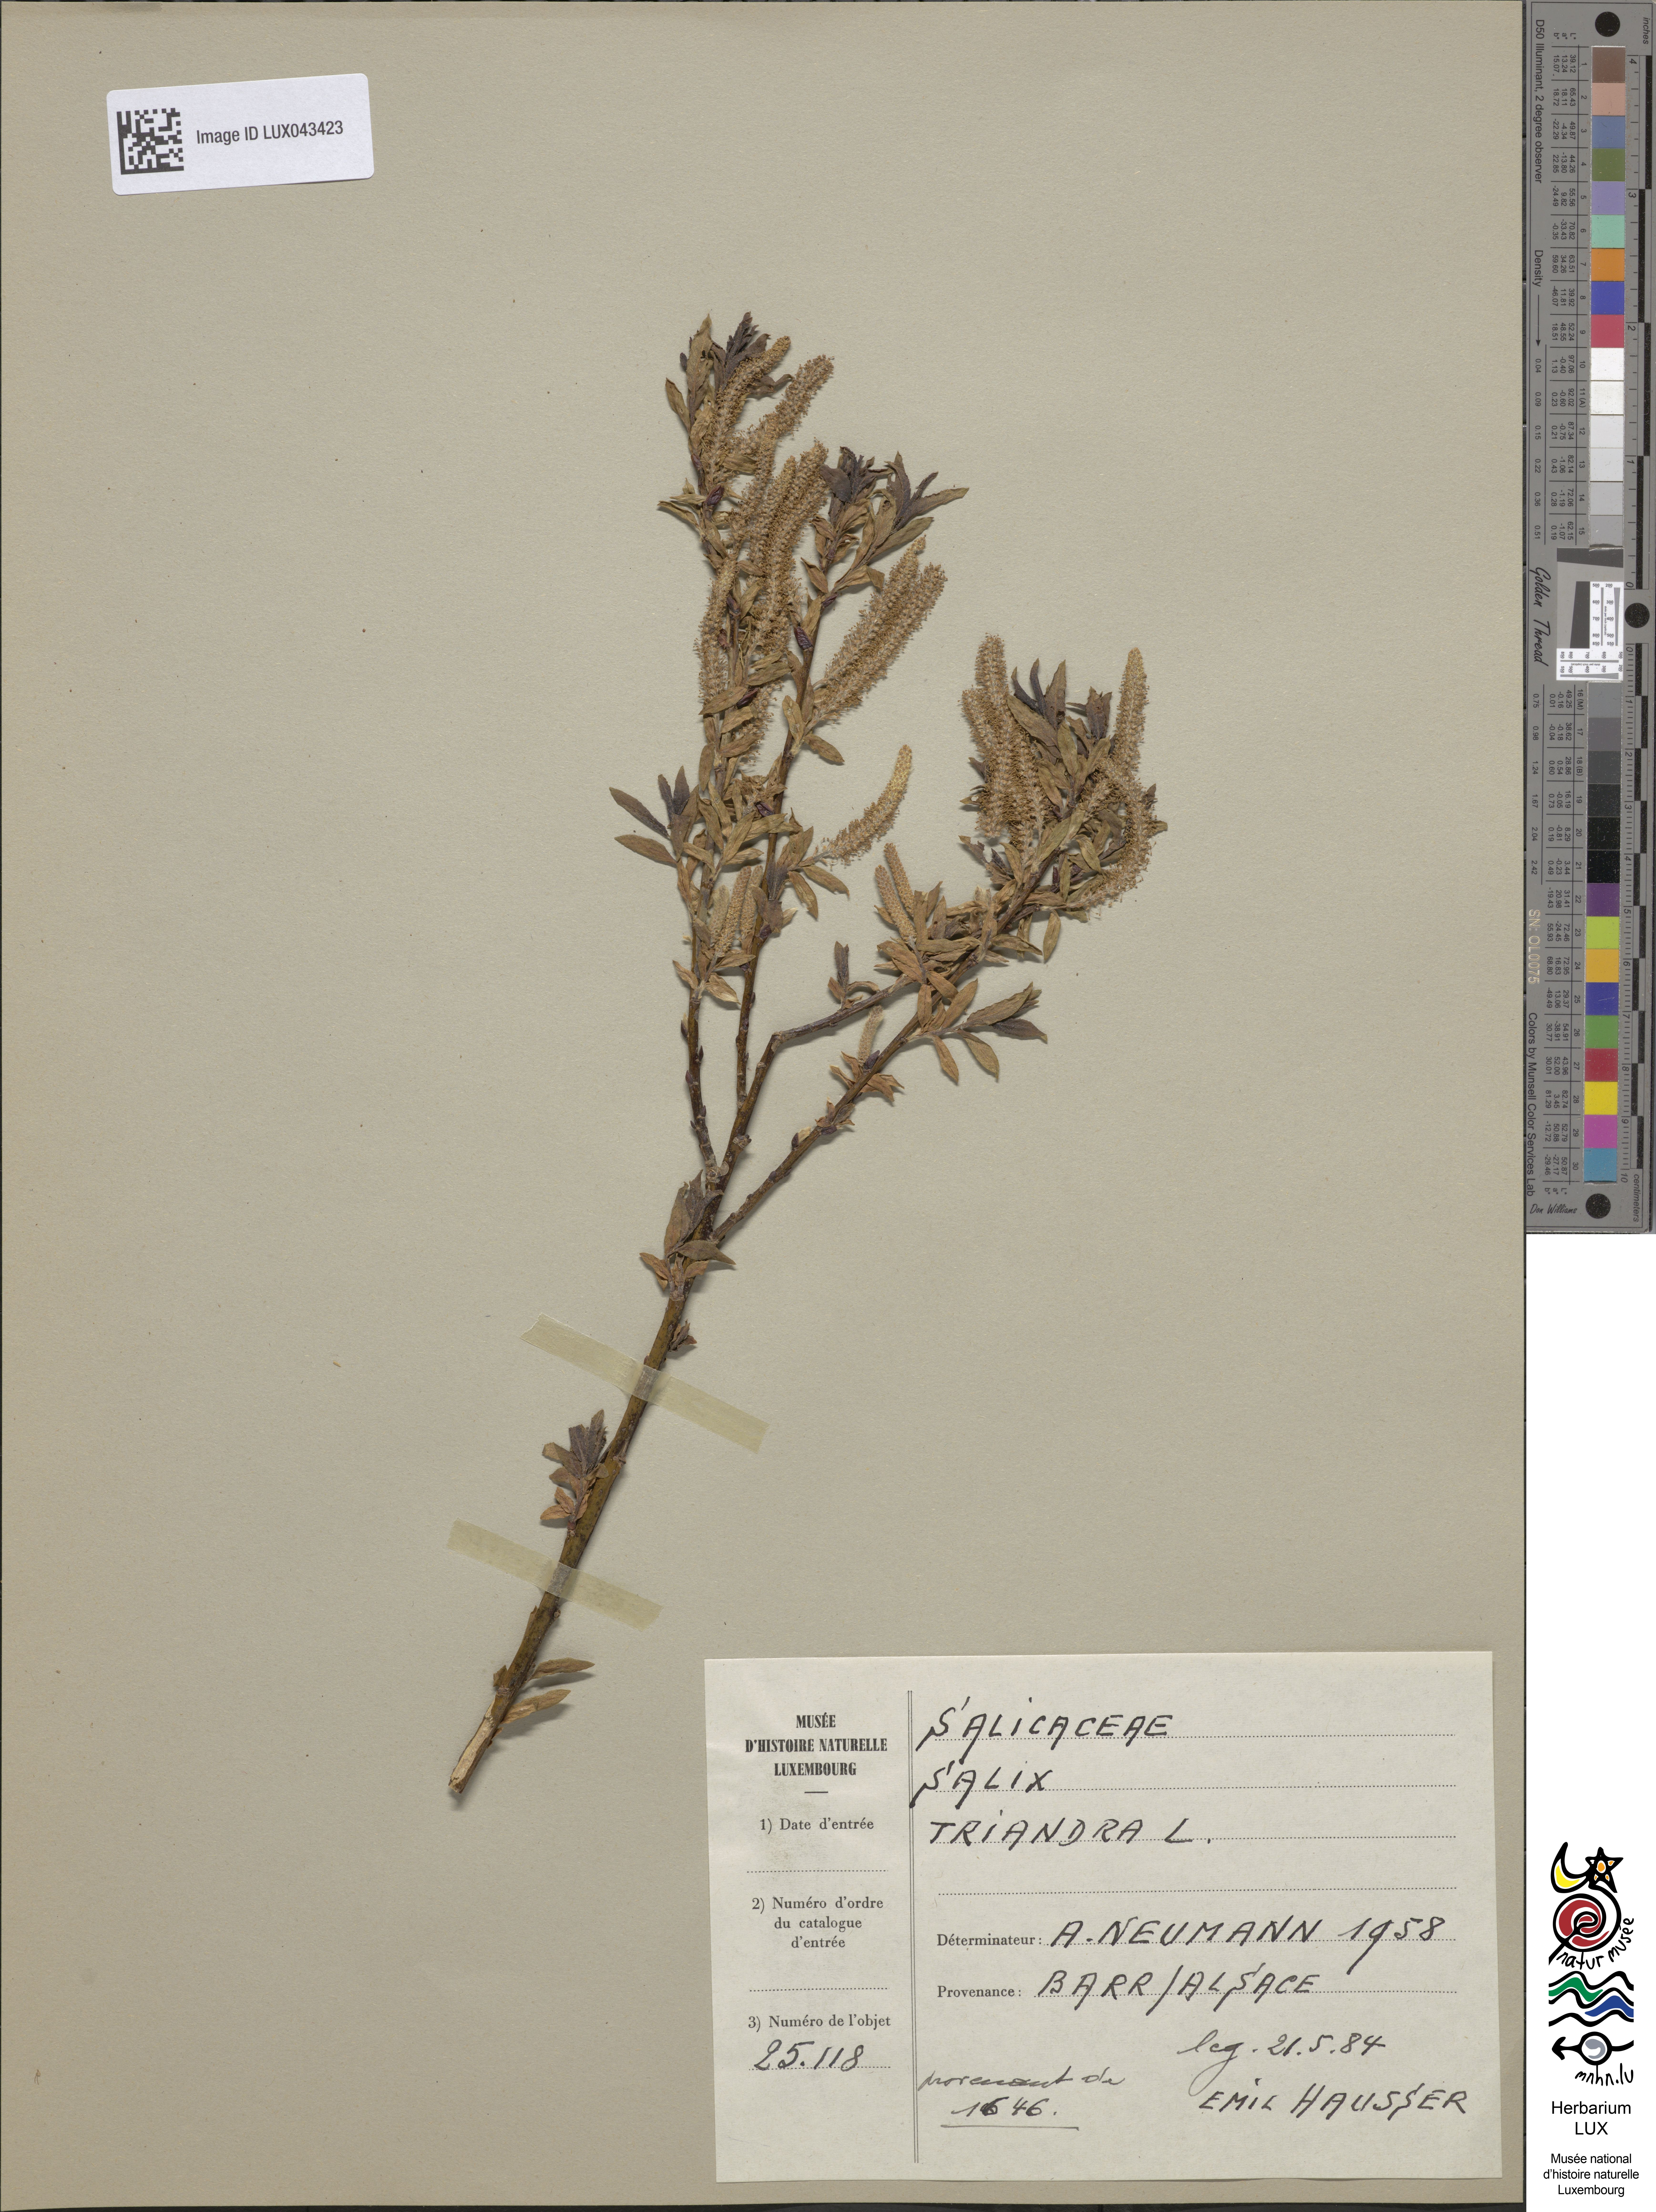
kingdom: Plantae
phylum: Tracheophyta
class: Magnoliopsida
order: Malpighiales
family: Salicaceae
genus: Salix
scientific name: Salix triandra
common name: Almond willow
